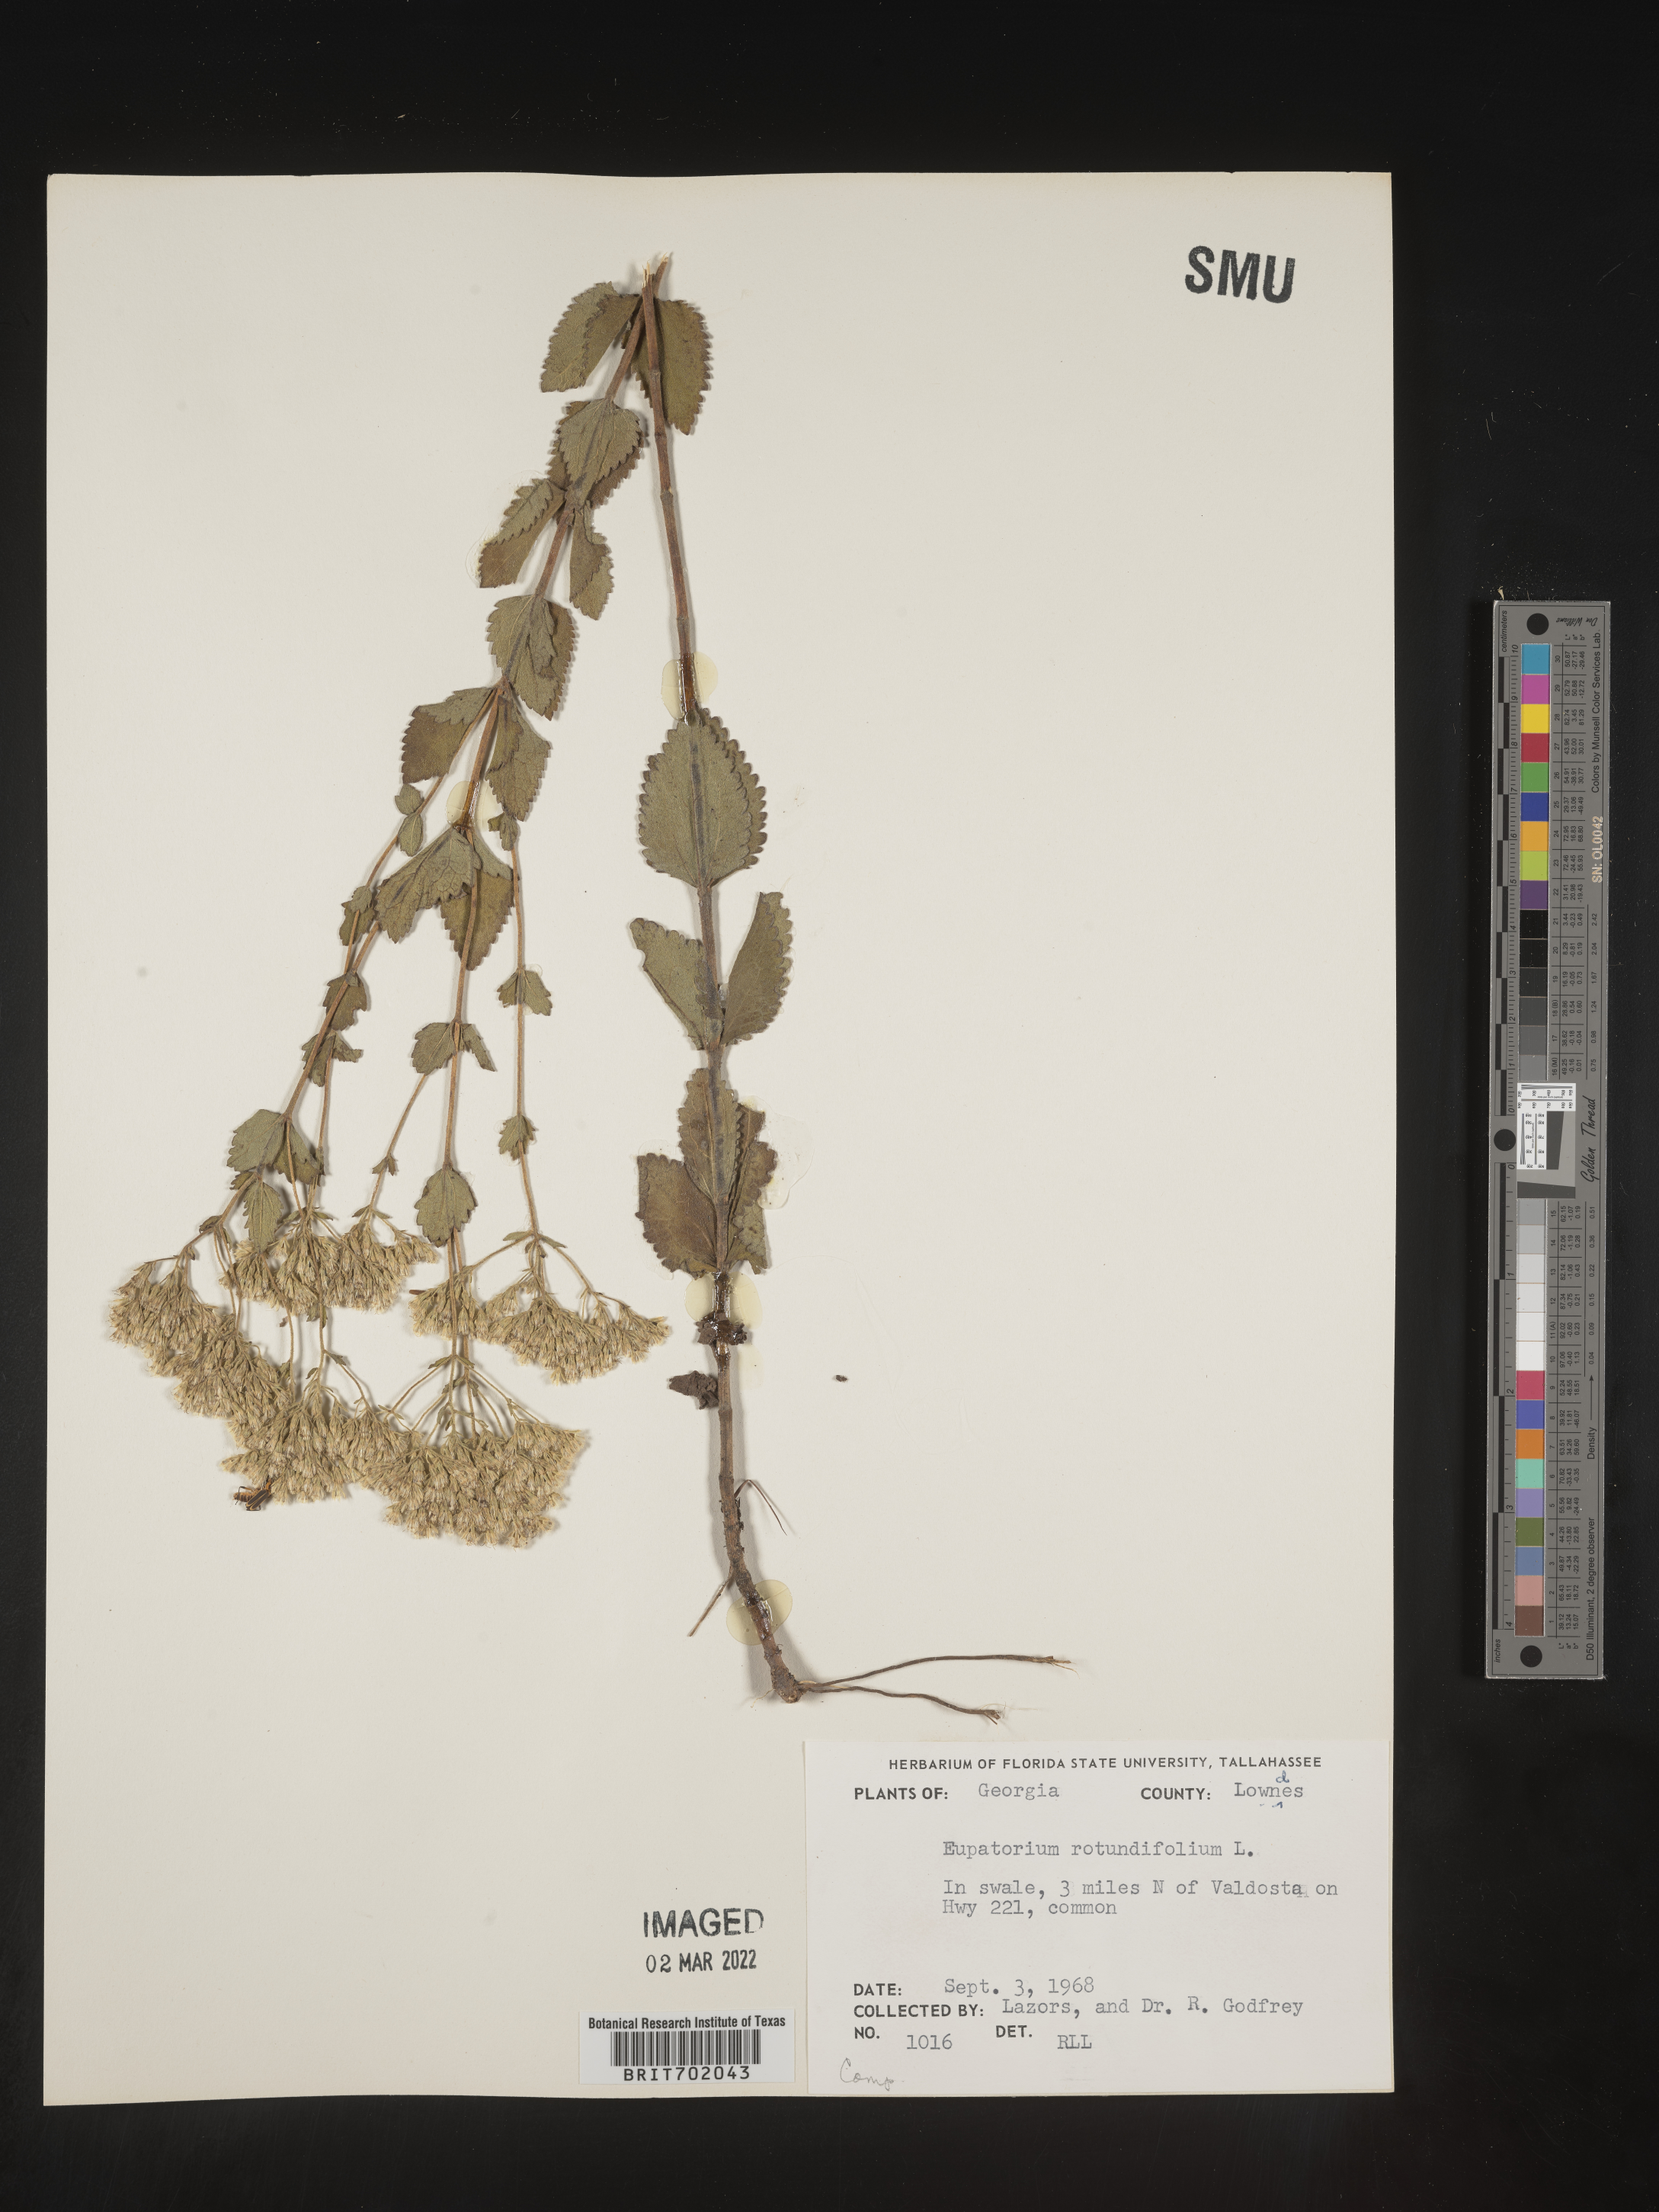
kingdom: Plantae
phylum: Tracheophyta
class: Magnoliopsida
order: Asterales
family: Asteraceae
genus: Eupatorium
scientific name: Eupatorium rotundifolium
